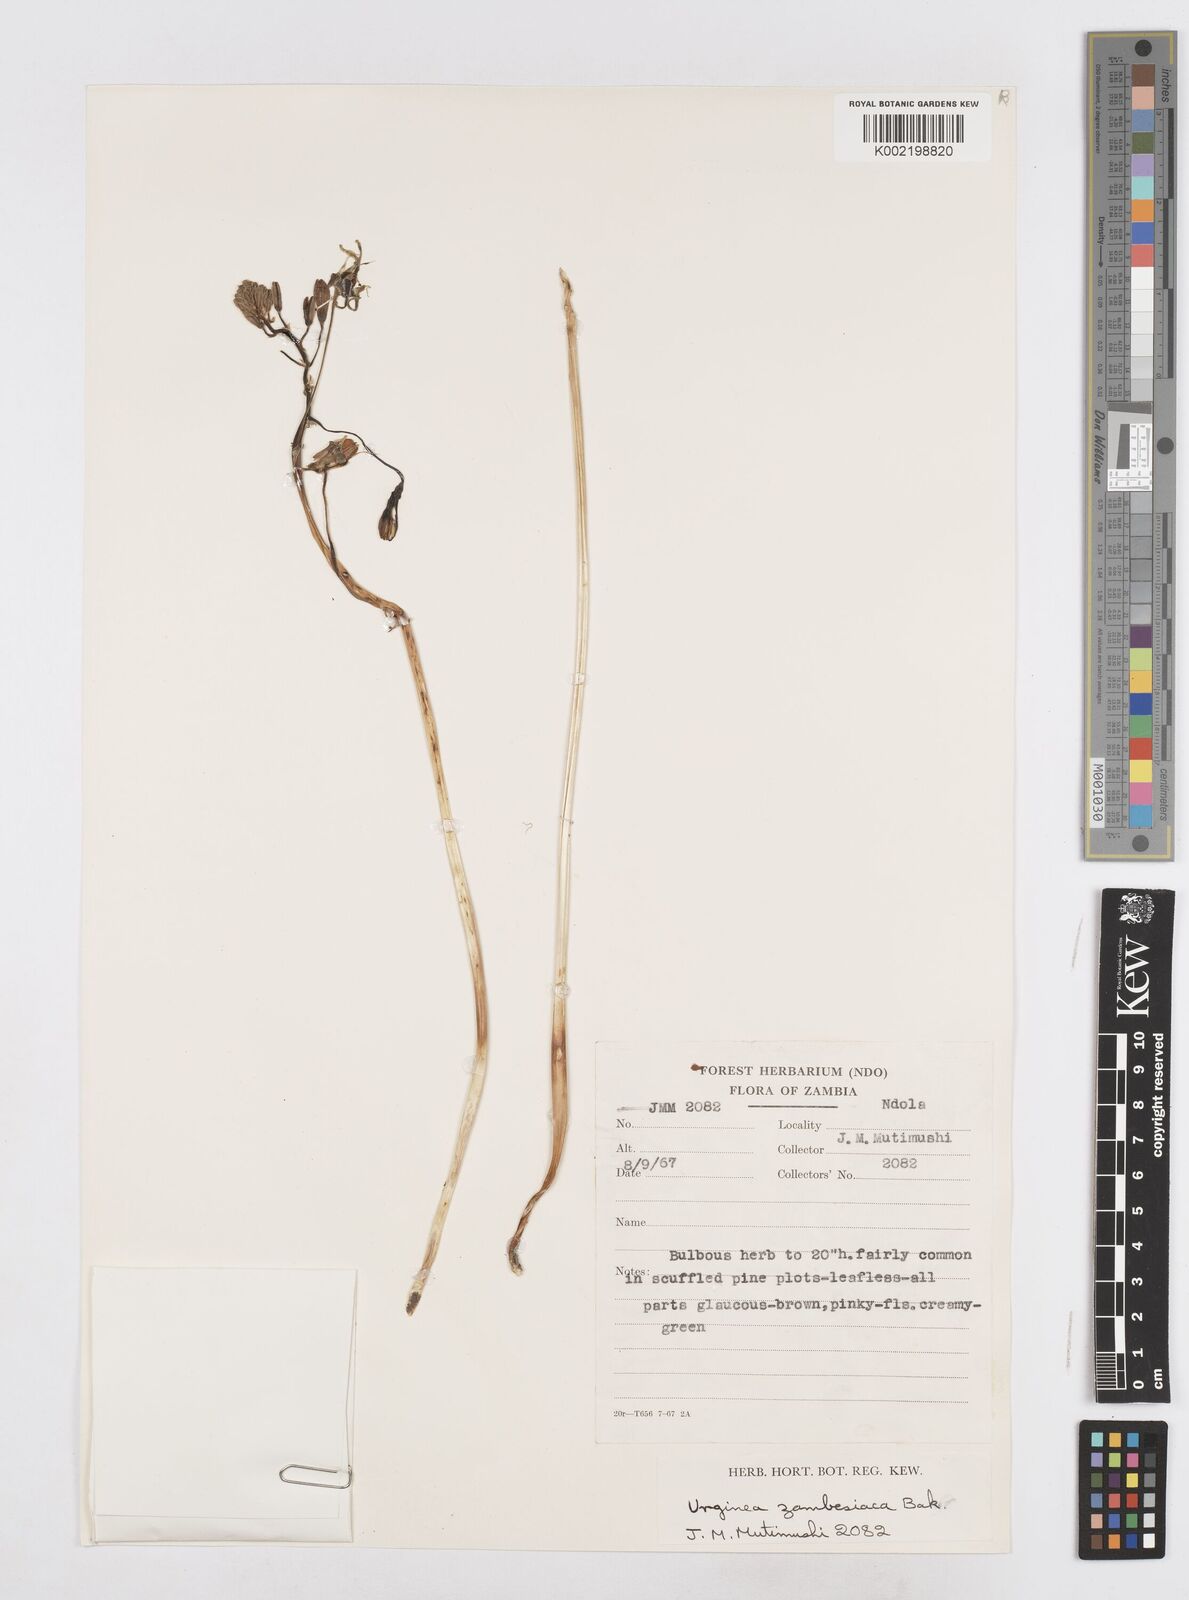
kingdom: Plantae
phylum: Tracheophyta
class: Liliopsida
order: Asparagales
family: Asparagaceae
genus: Drimia
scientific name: Drimia indica
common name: Indian-squill
